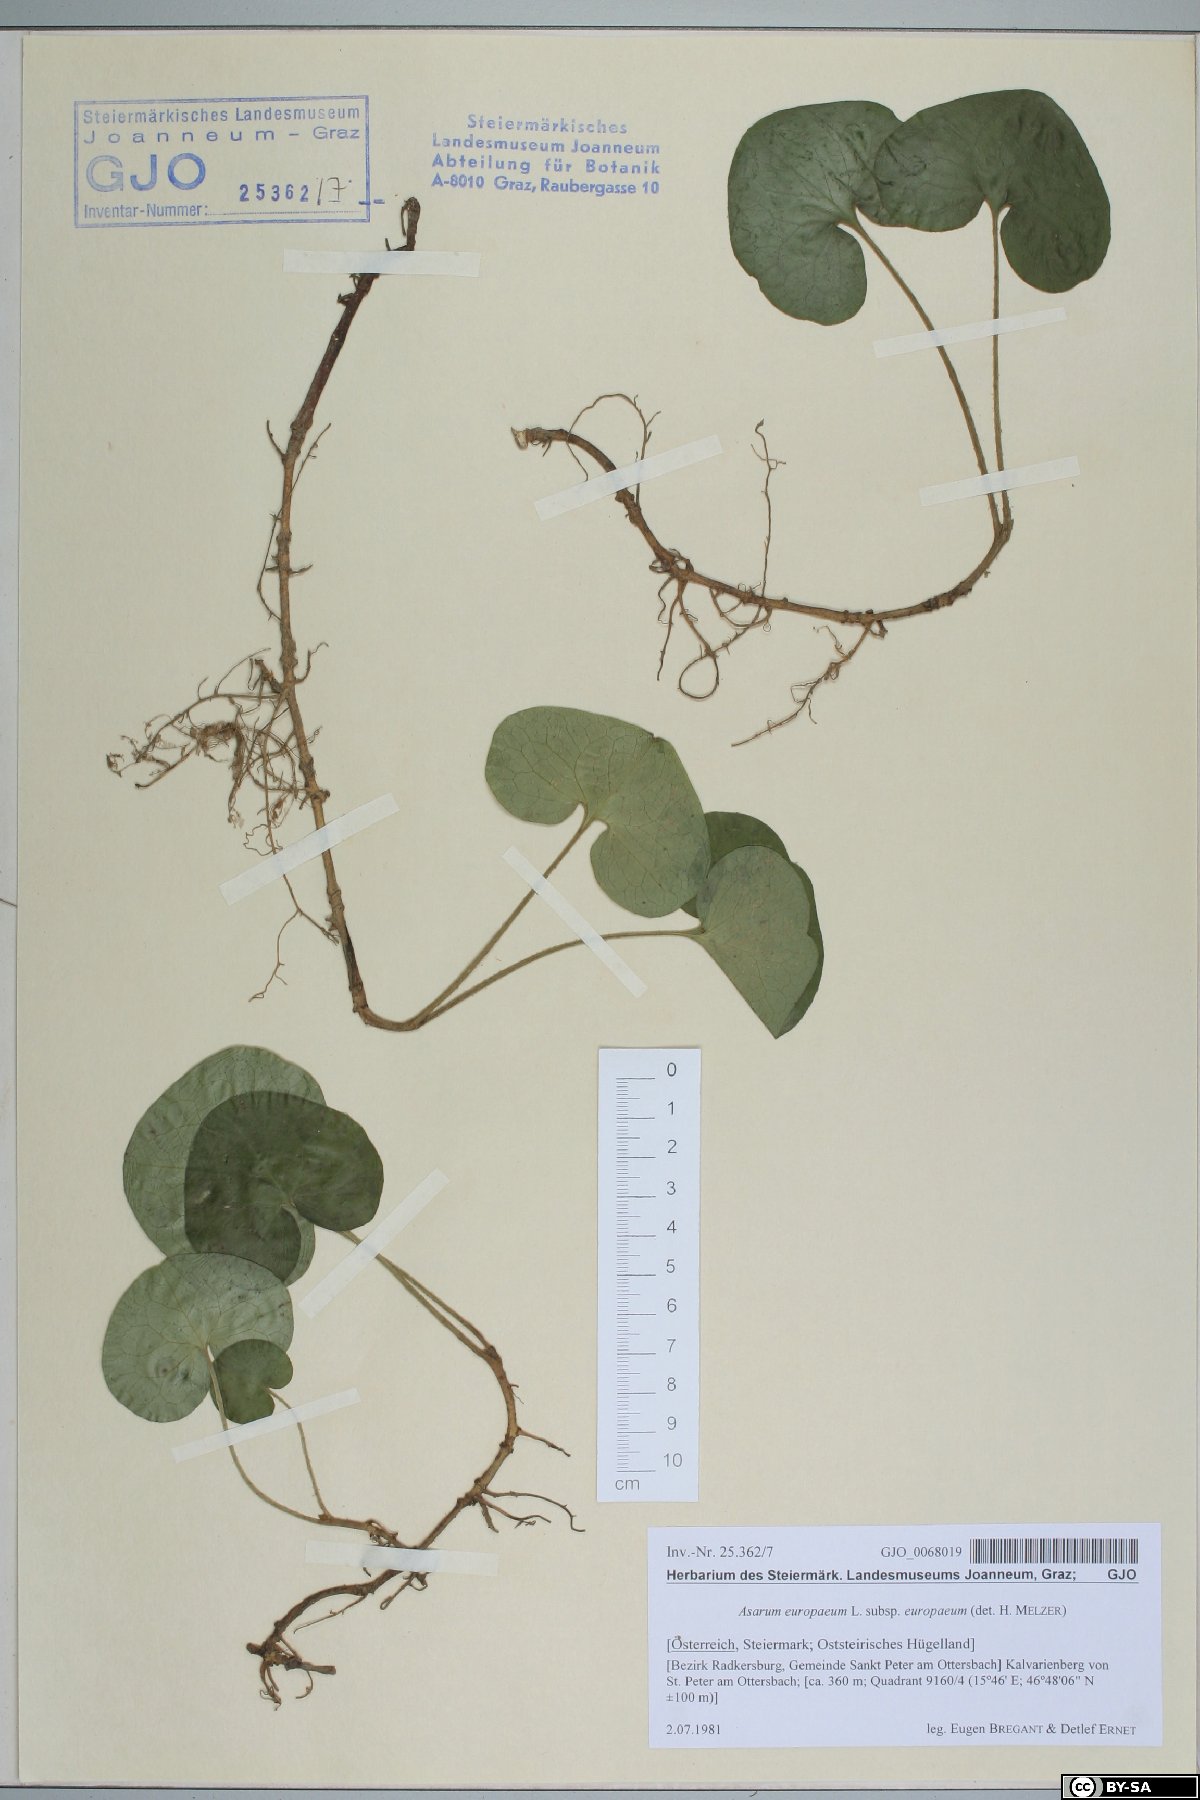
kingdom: Plantae
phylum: Tracheophyta
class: Magnoliopsida
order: Piperales
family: Aristolochiaceae
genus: Asarum
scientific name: Asarum europaeum
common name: Asarabacca
